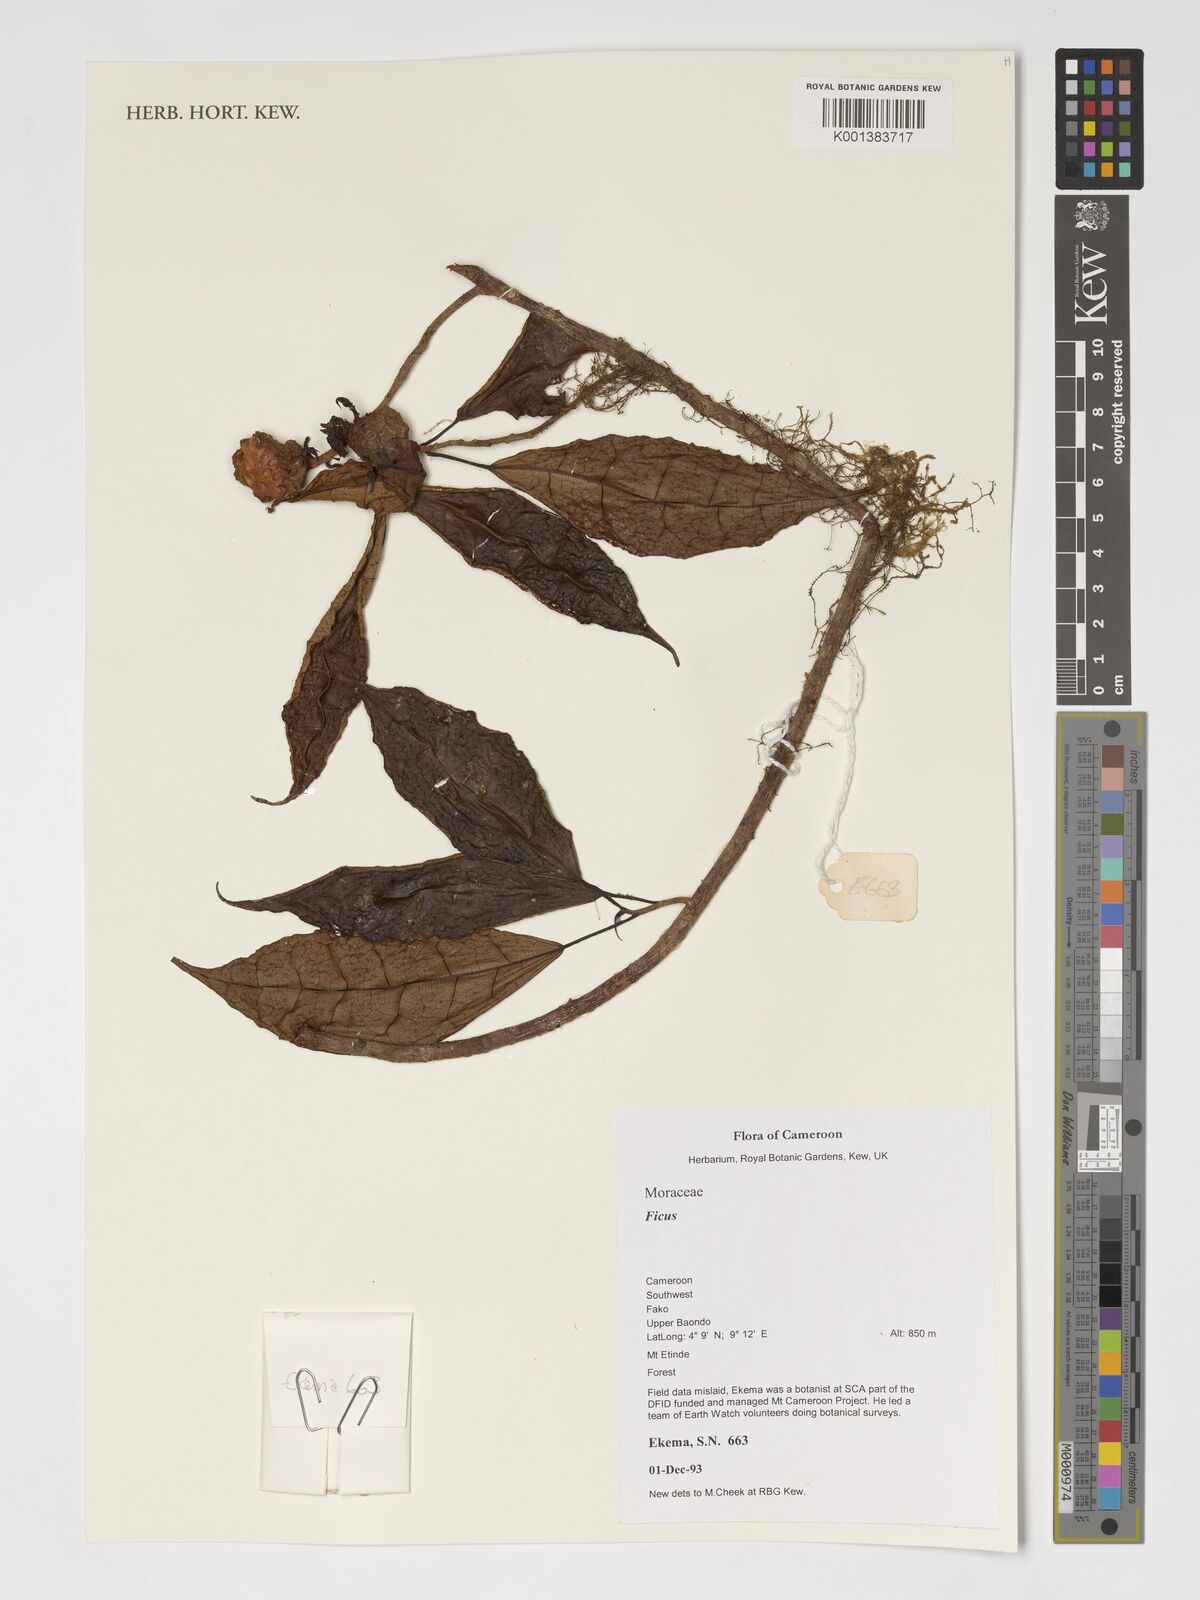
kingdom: Plantae
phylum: Tracheophyta
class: Magnoliopsida
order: Rosales
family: Moraceae
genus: Ficus
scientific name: Ficus
